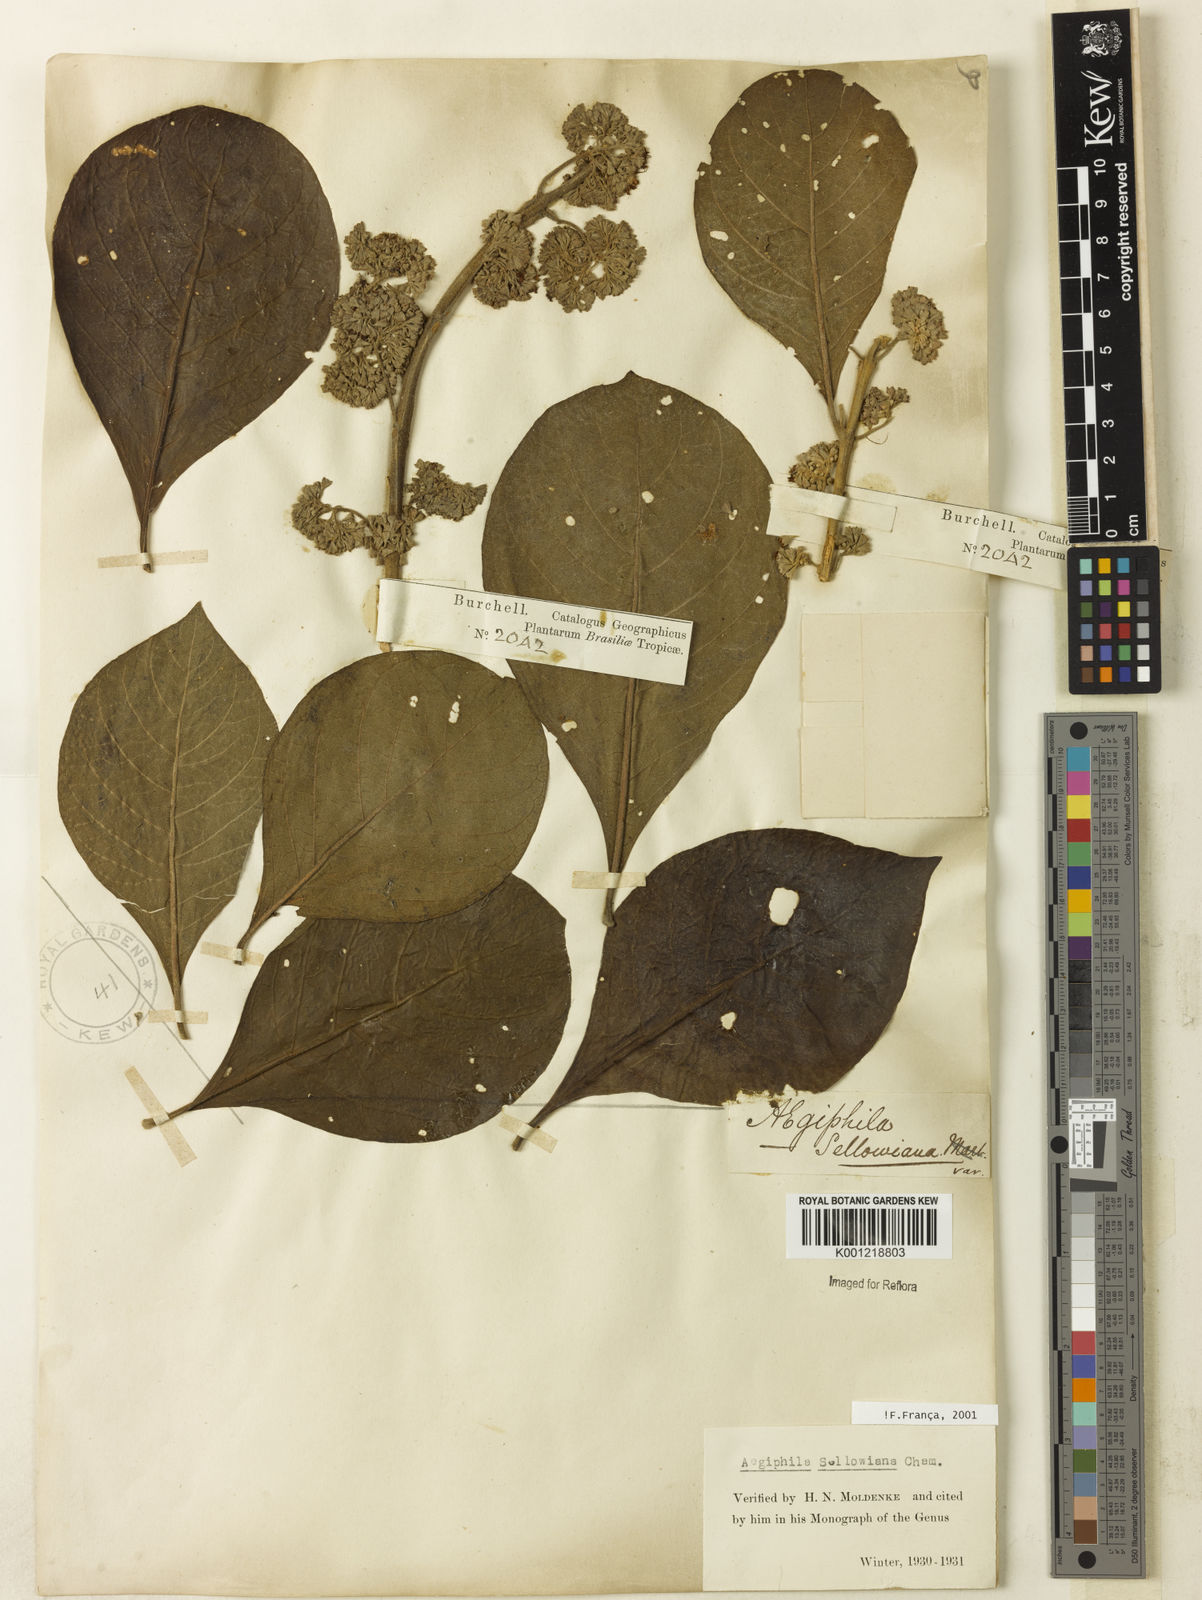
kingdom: Plantae
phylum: Tracheophyta
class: Magnoliopsida
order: Lamiales
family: Lamiaceae
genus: Aegiphila
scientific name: Aegiphila verticillata
